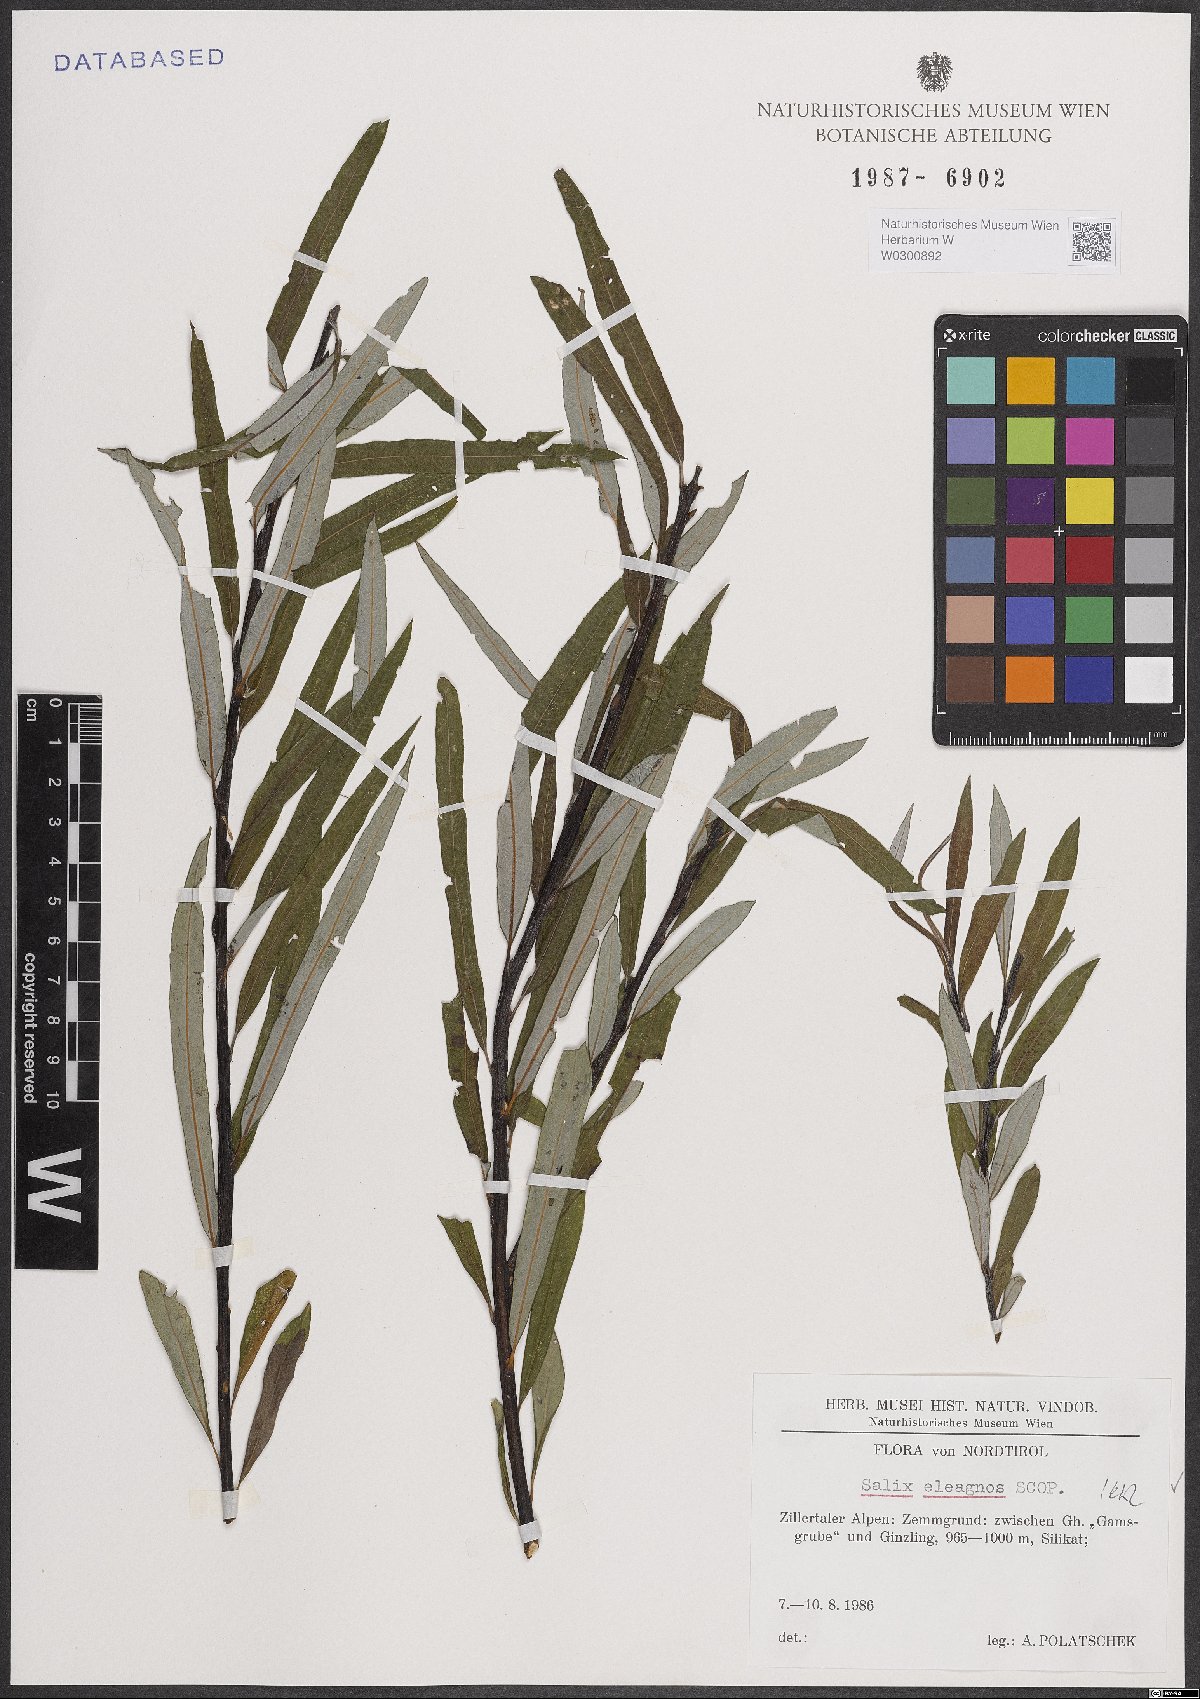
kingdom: Plantae
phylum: Tracheophyta
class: Magnoliopsida
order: Malpighiales
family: Salicaceae
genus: Salix
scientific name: Salix eleagnos
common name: Elaeagnus willow
